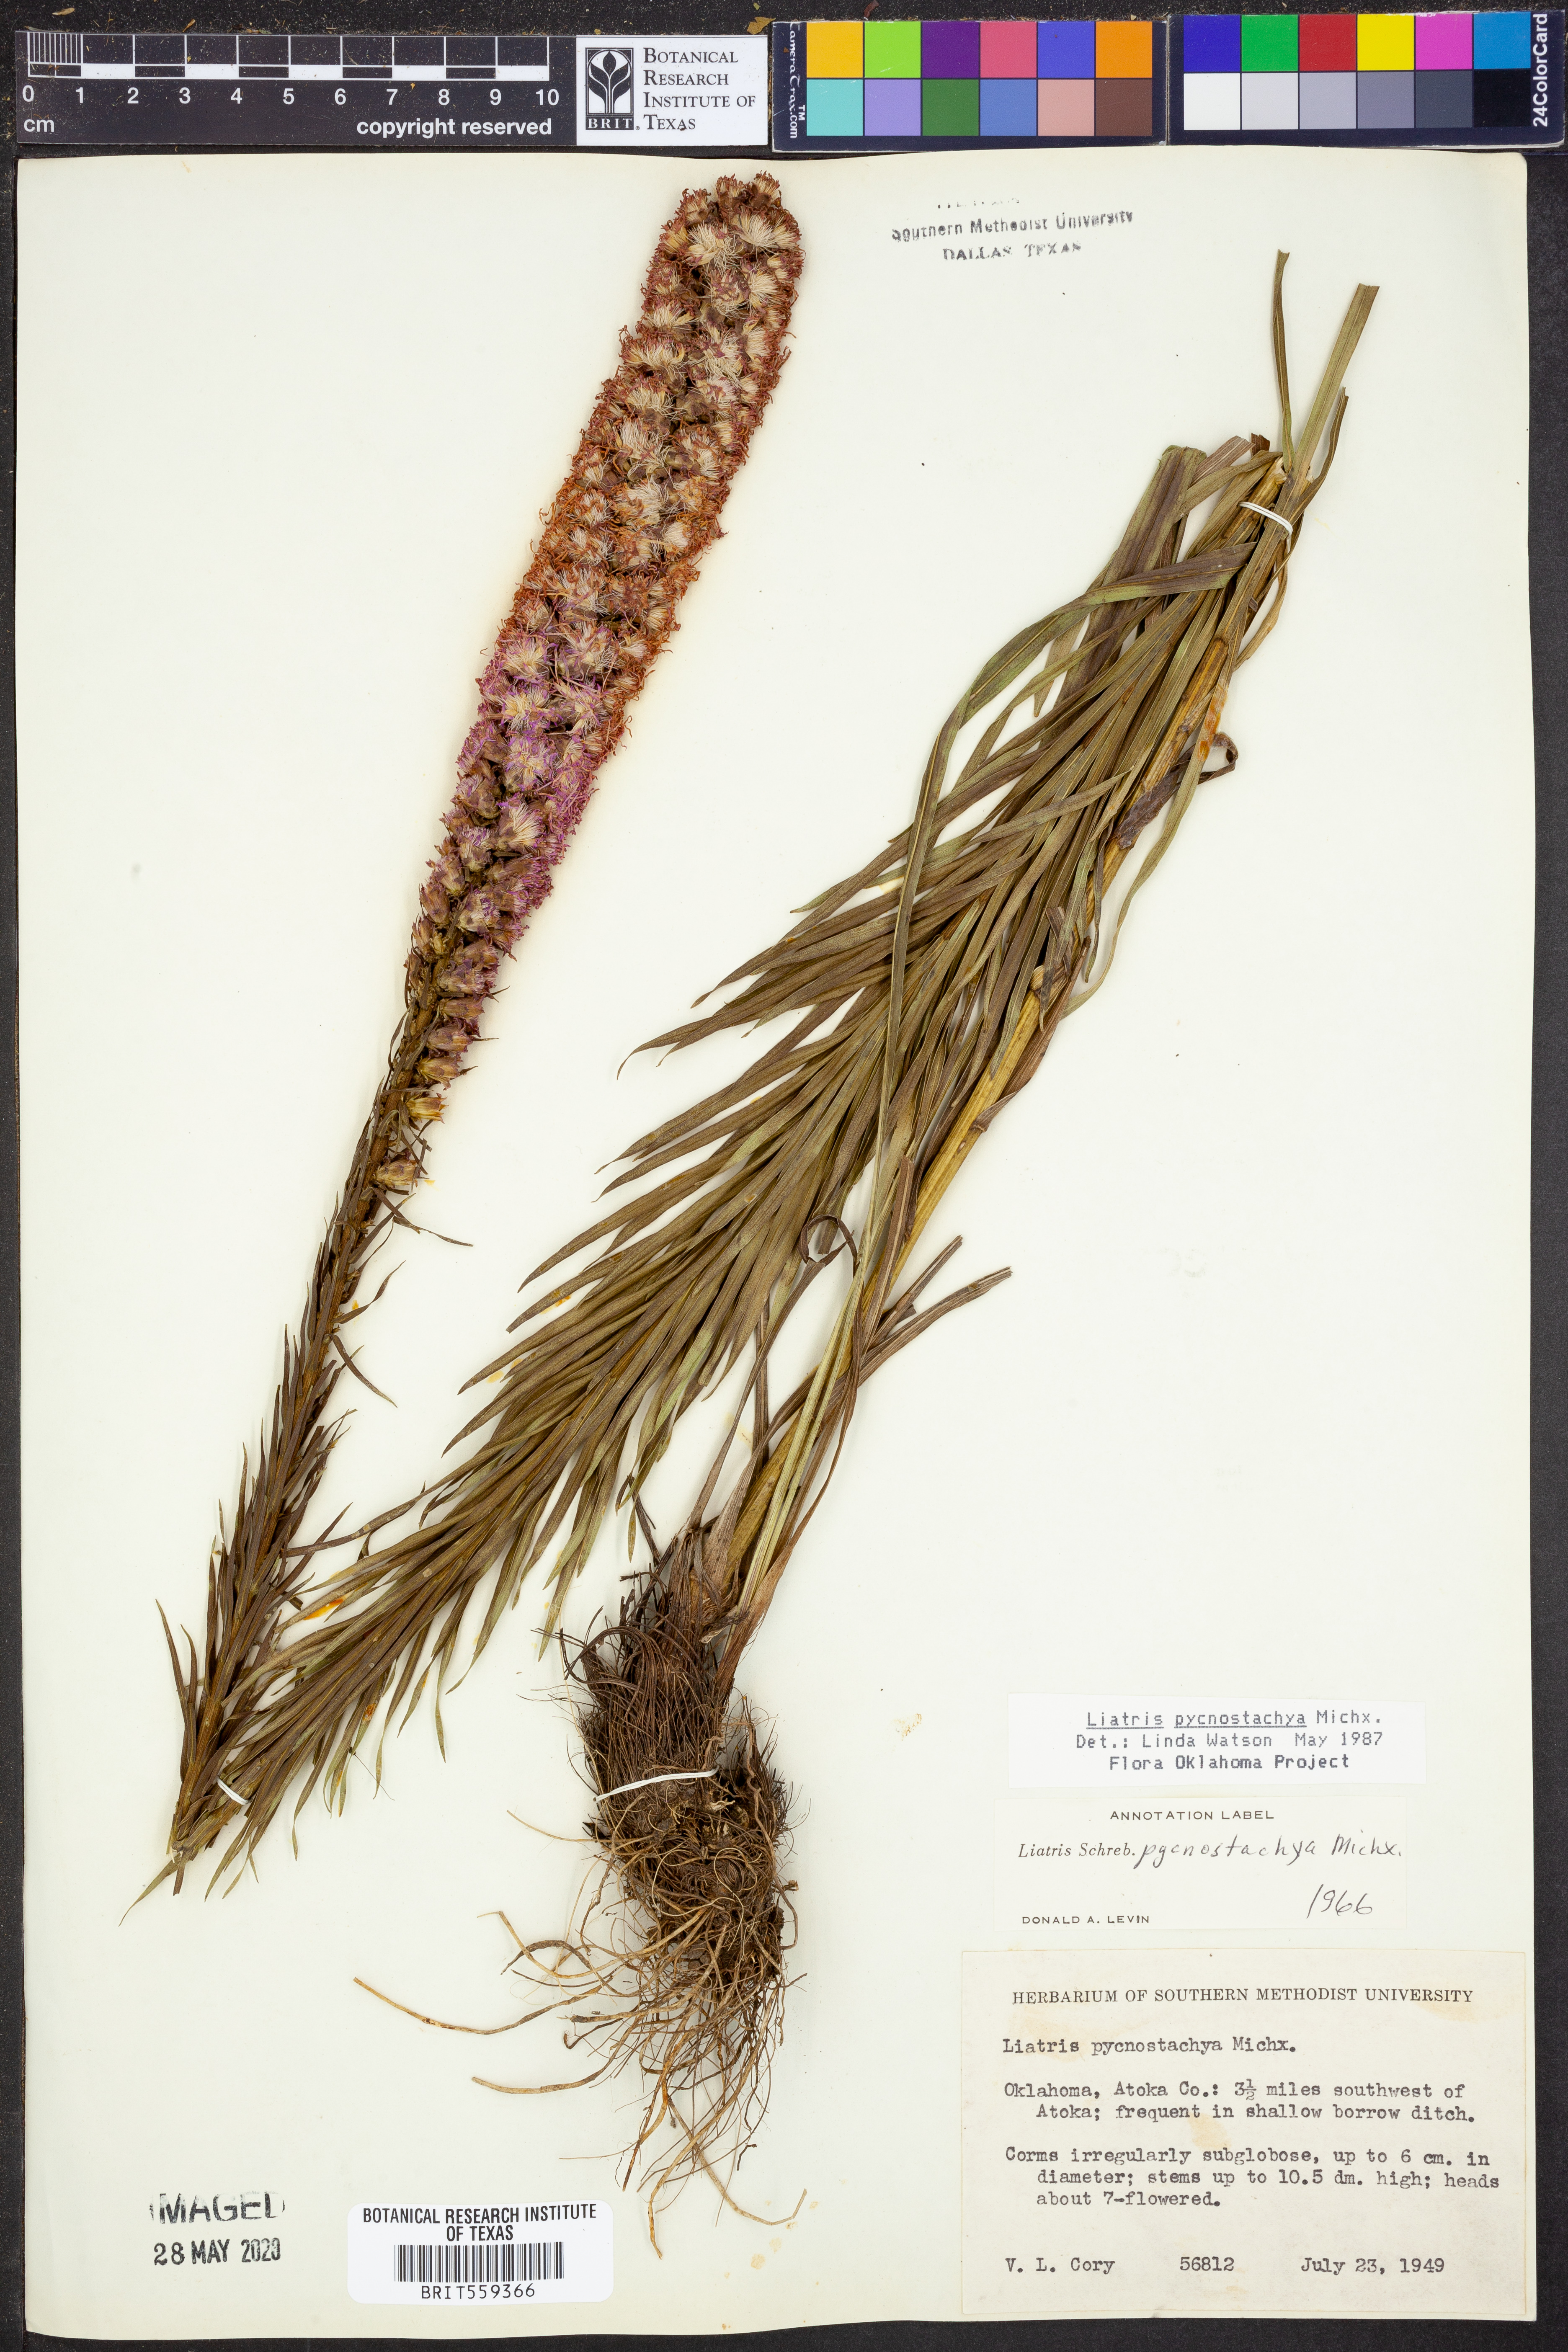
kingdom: Plantae
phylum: Tracheophyta
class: Magnoliopsida
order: Asterales
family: Asteraceae
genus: Liatris
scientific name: Liatris pycnostachya
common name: Cattail gayfeather
